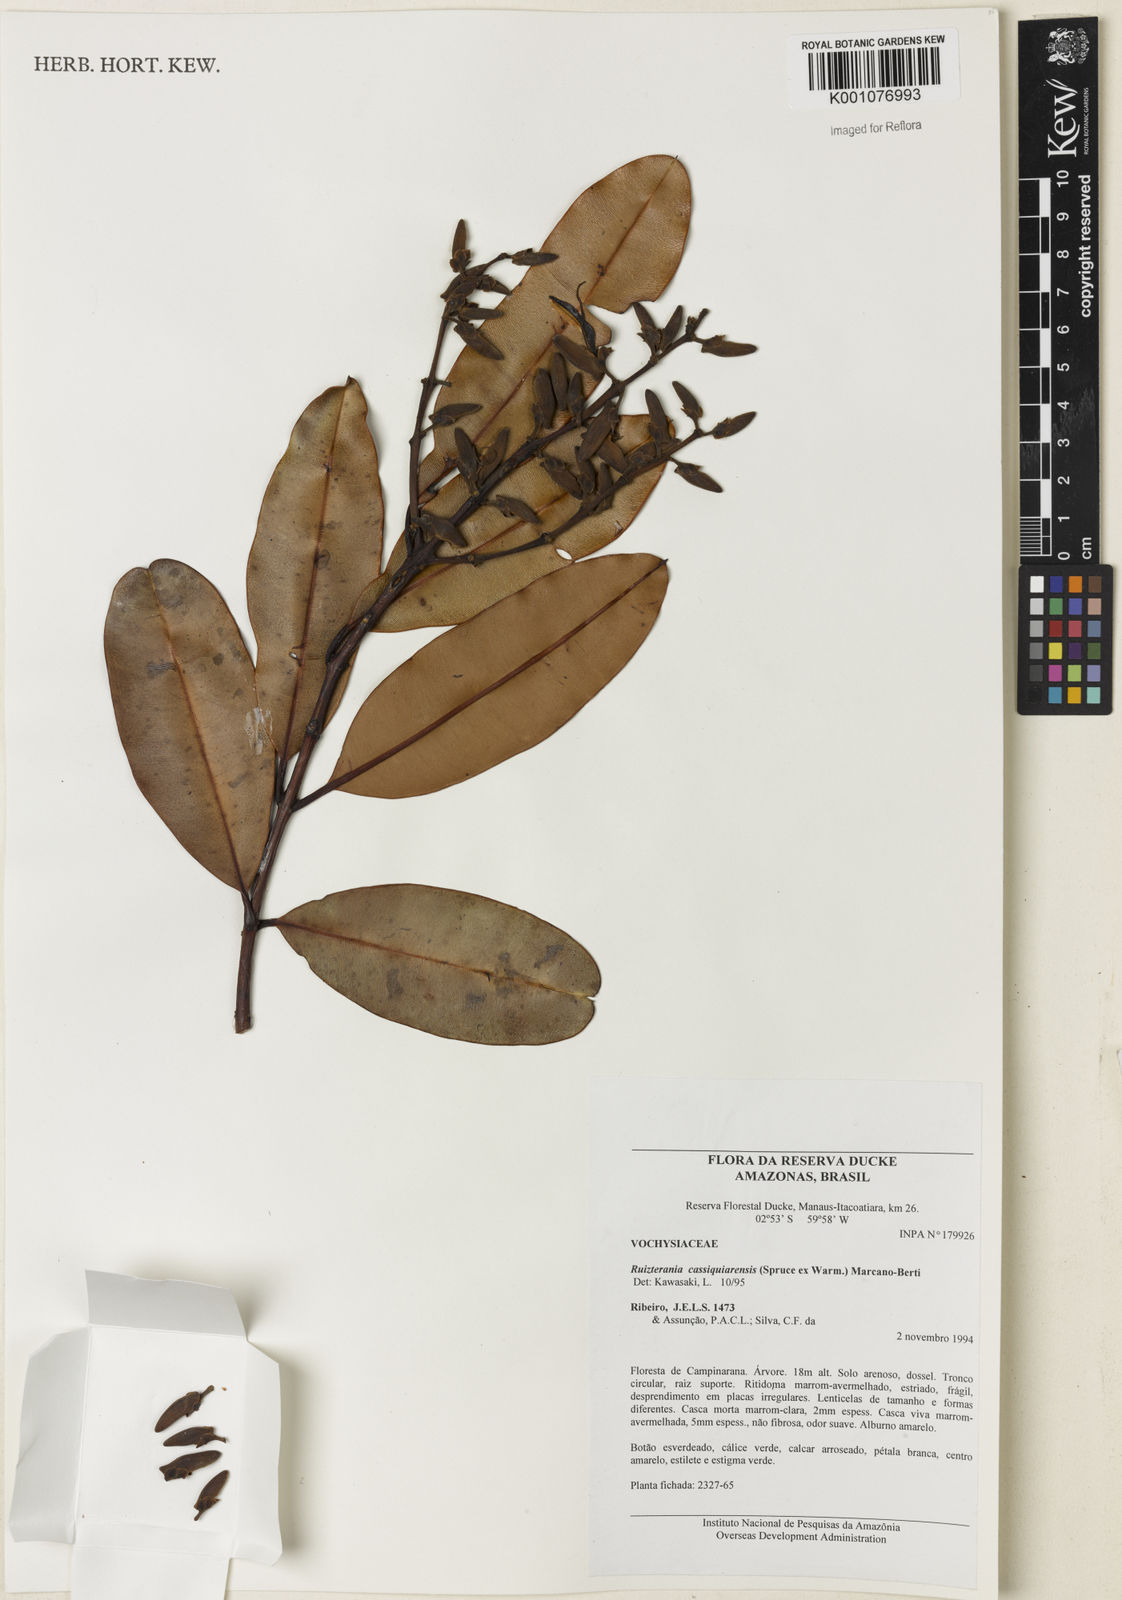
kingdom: Plantae
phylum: Tracheophyta
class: Magnoliopsida
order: Myrtales
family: Vochysiaceae
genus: Ruizterania
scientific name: Ruizterania cassiquiarensis
